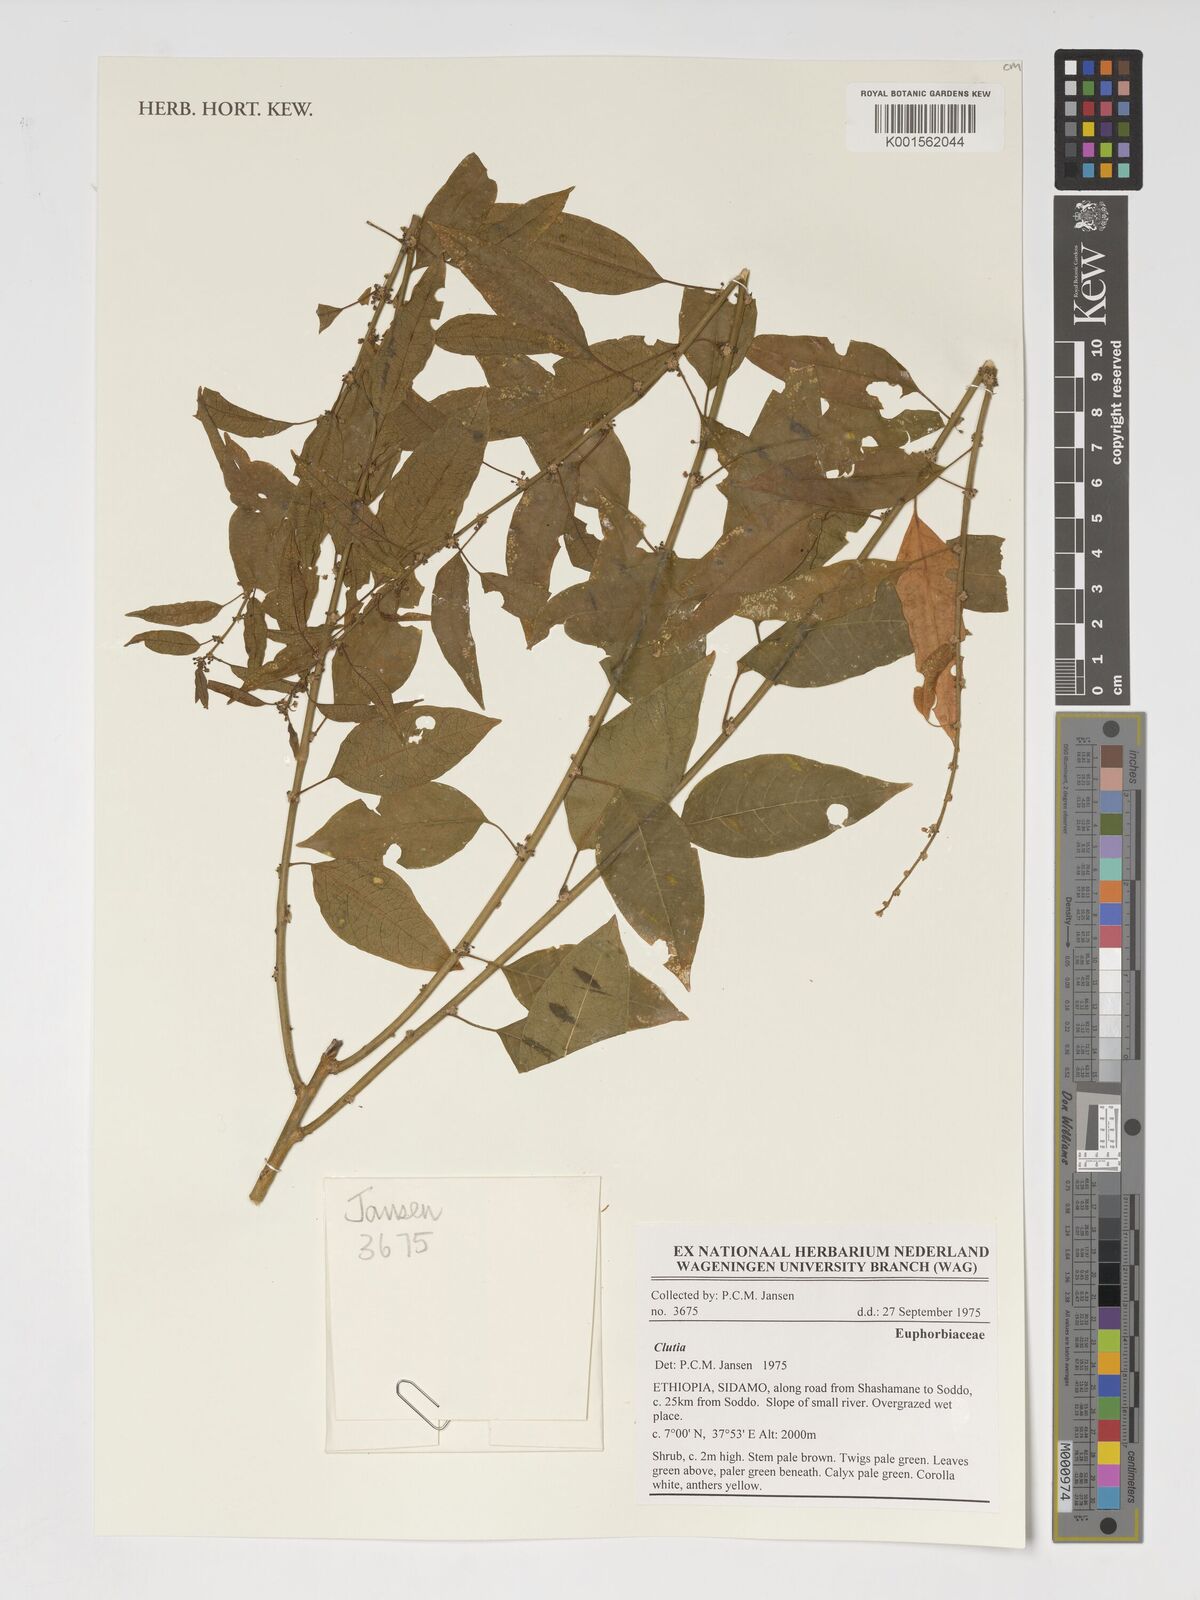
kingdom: Plantae
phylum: Tracheophyta
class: Magnoliopsida
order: Malpighiales
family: Peraceae
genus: Clutia
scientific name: Clutia
